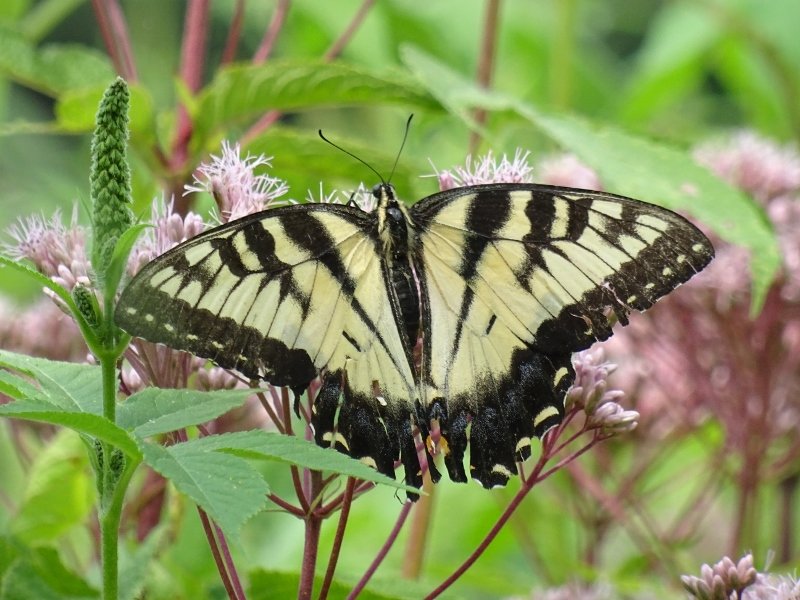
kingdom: Animalia
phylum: Arthropoda
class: Insecta
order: Lepidoptera
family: Papilionidae
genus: Pterourus
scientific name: Pterourus glaucus
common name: Eastern Tiger Swallowtail
